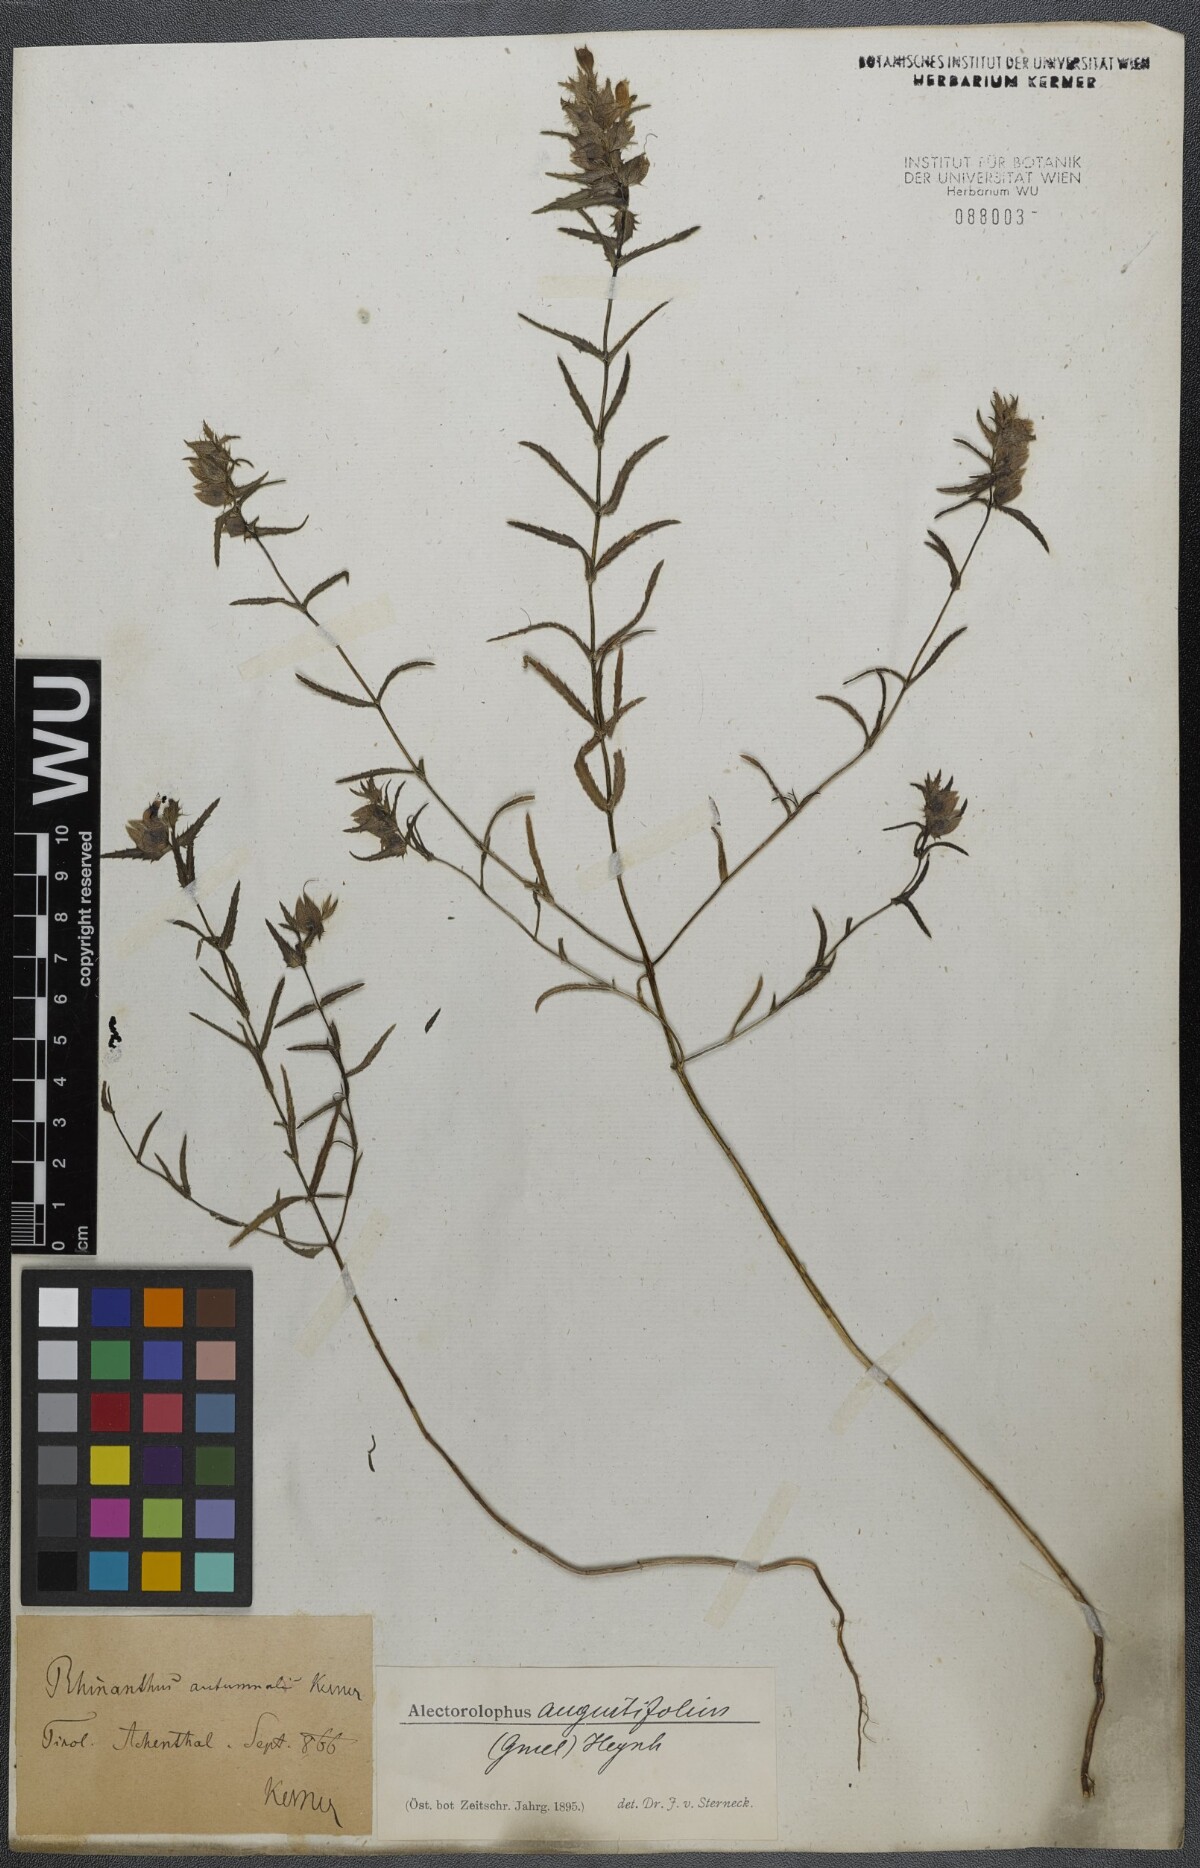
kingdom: Plantae
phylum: Tracheophyta
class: Magnoliopsida
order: Lamiales
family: Orobanchaceae
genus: Rhinanthus
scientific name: Rhinanthus
